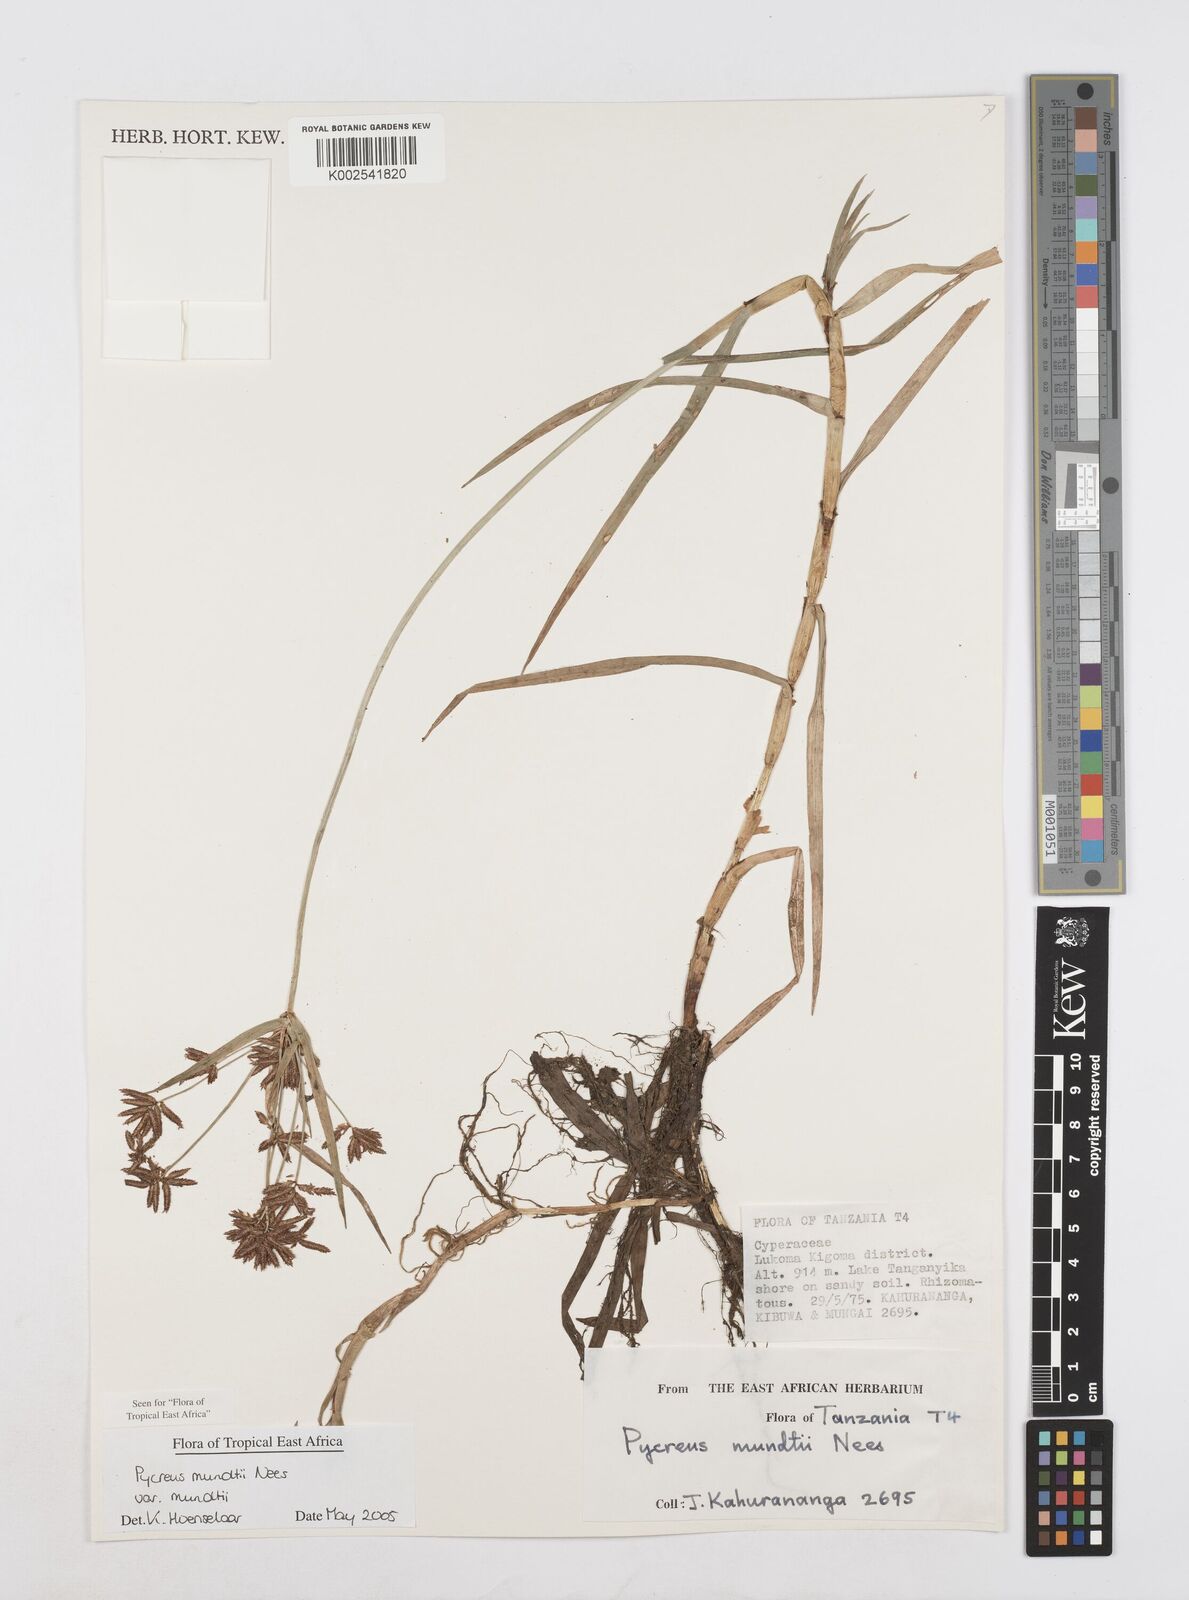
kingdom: Plantae
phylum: Tracheophyta
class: Liliopsida
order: Poales
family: Cyperaceae
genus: Cyperus
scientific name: Cyperus mundii
